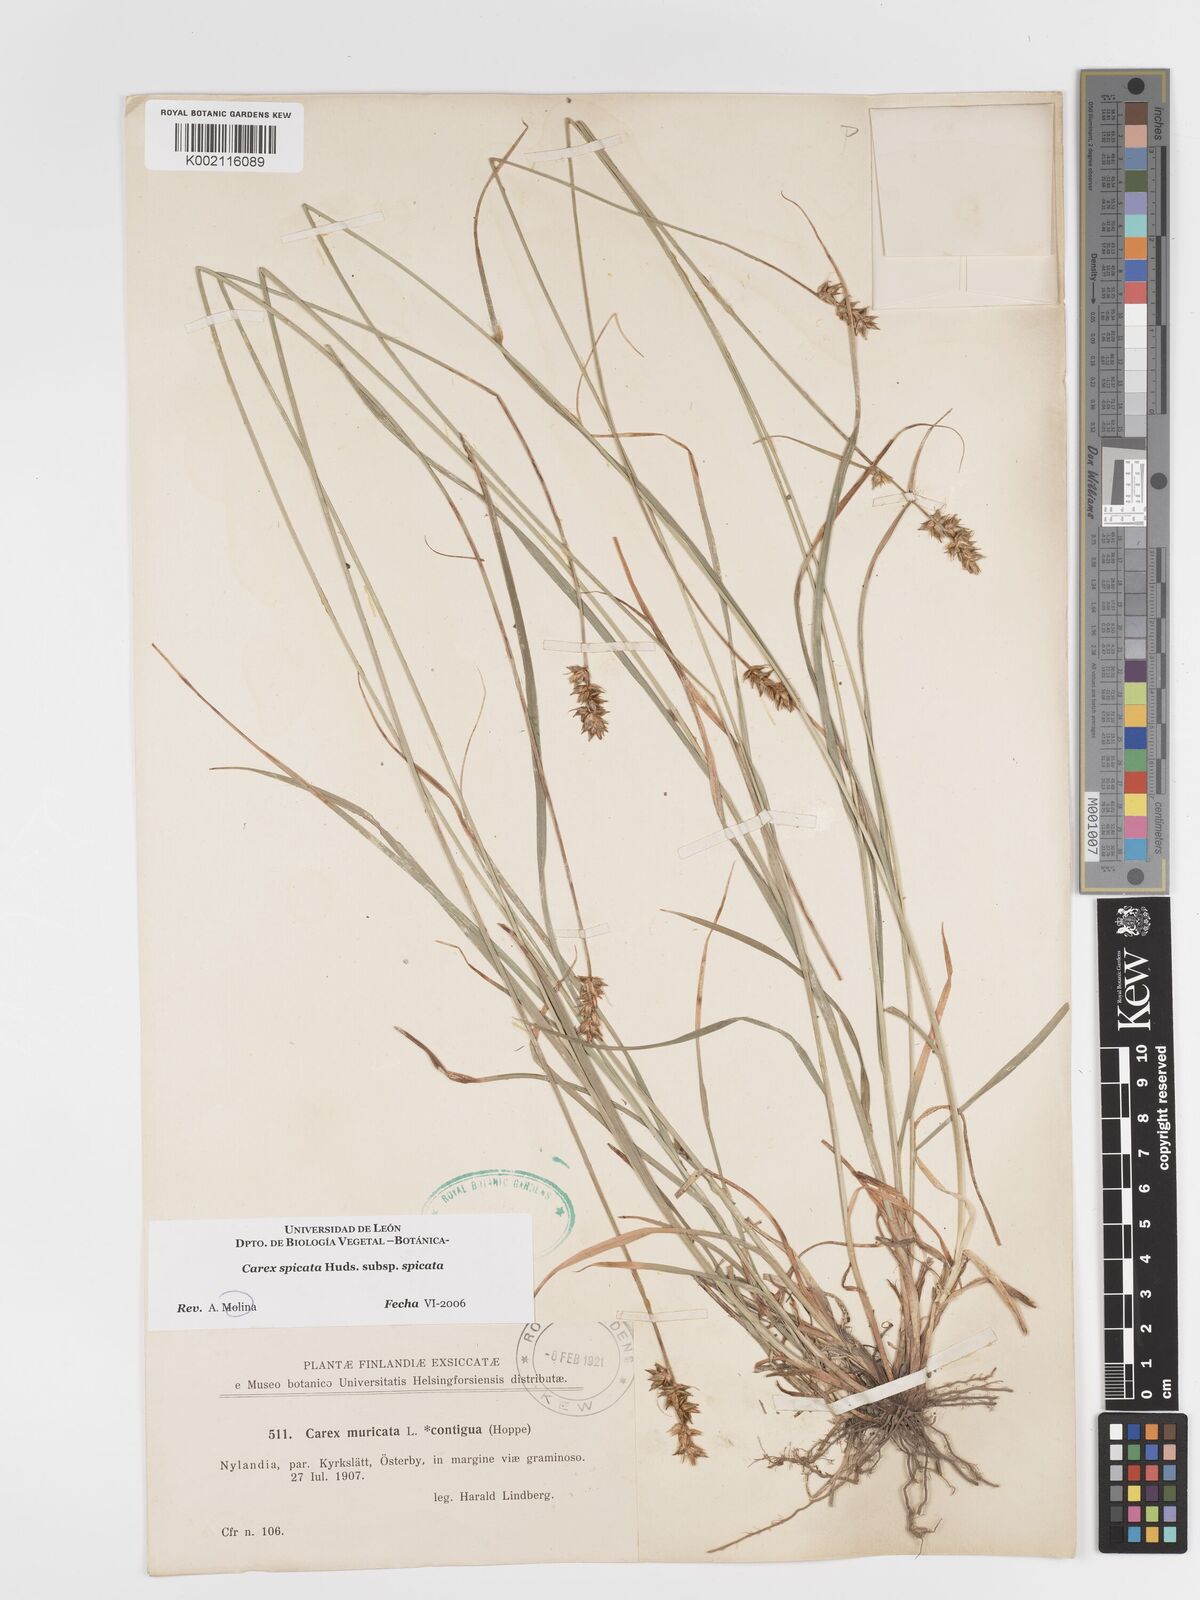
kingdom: Plantae
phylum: Tracheophyta
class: Liliopsida
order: Poales
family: Cyperaceae
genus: Carex
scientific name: Carex spicata
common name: Spiked sedge
